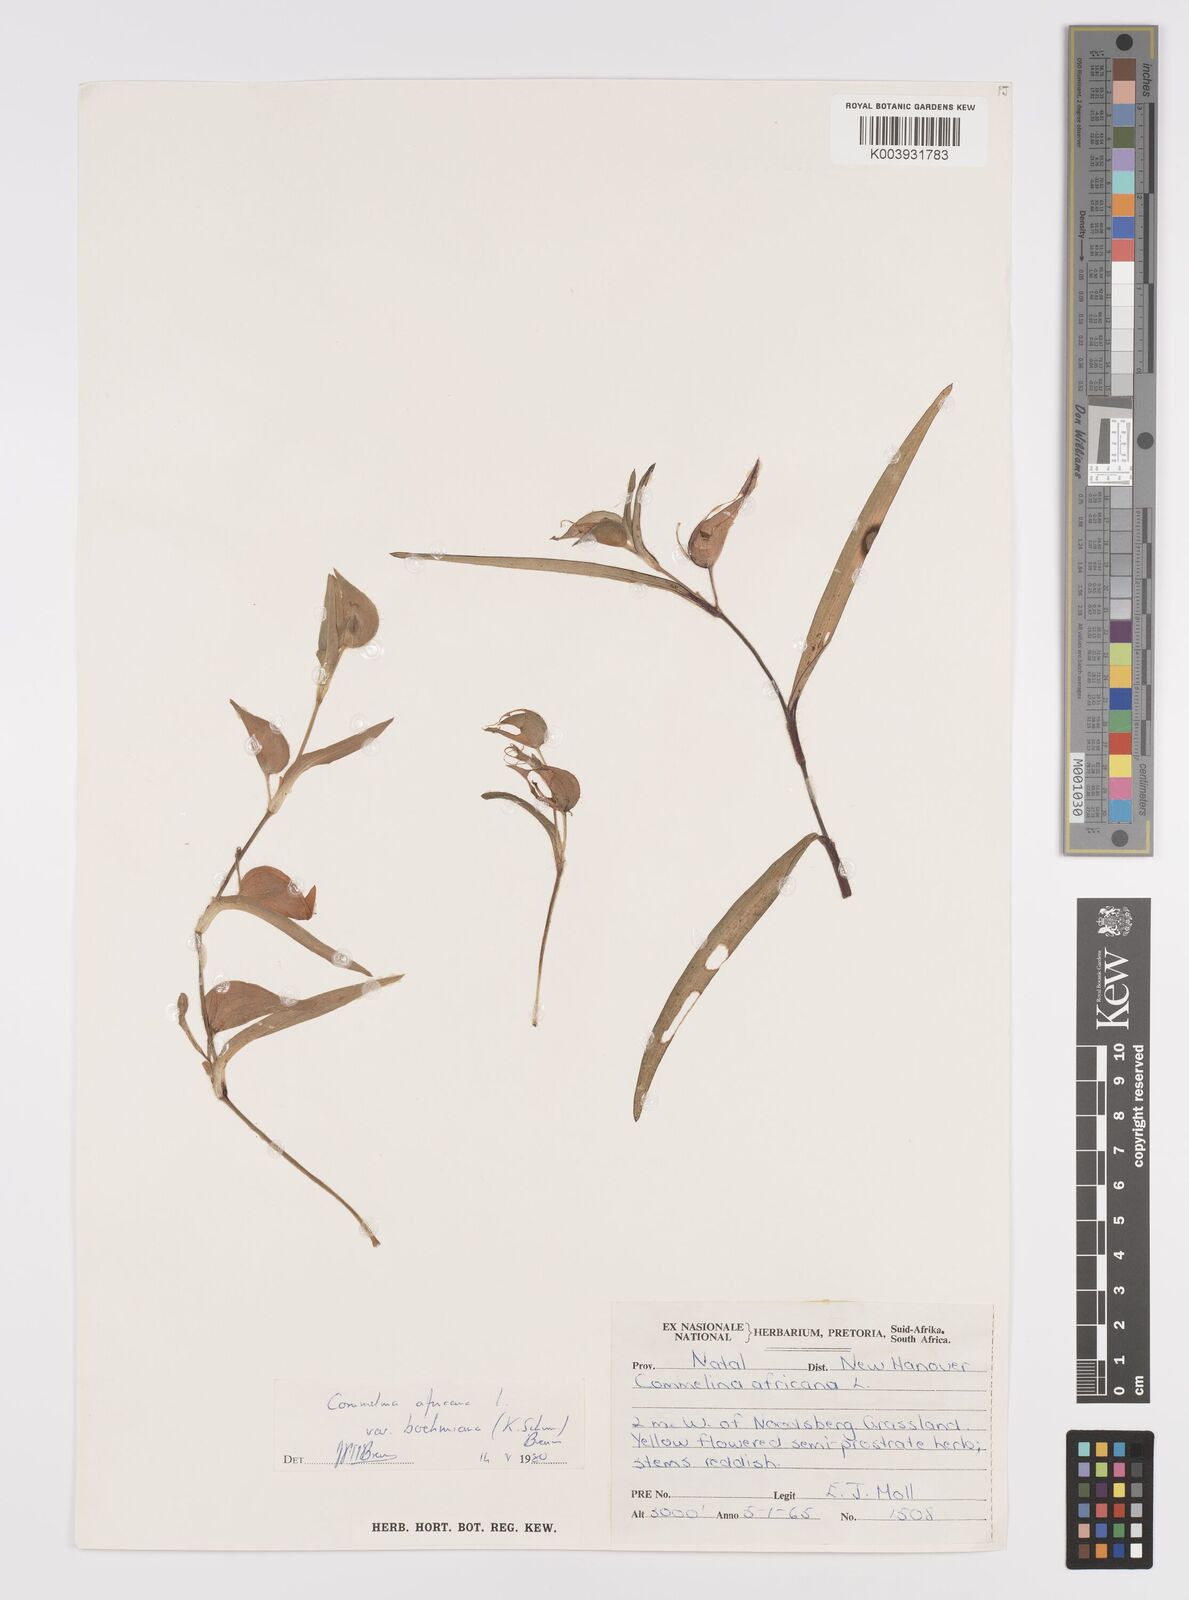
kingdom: Plantae
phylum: Tracheophyta
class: Liliopsida
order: Commelinales
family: Commelinaceae
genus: Commelina
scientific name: Commelina africana
